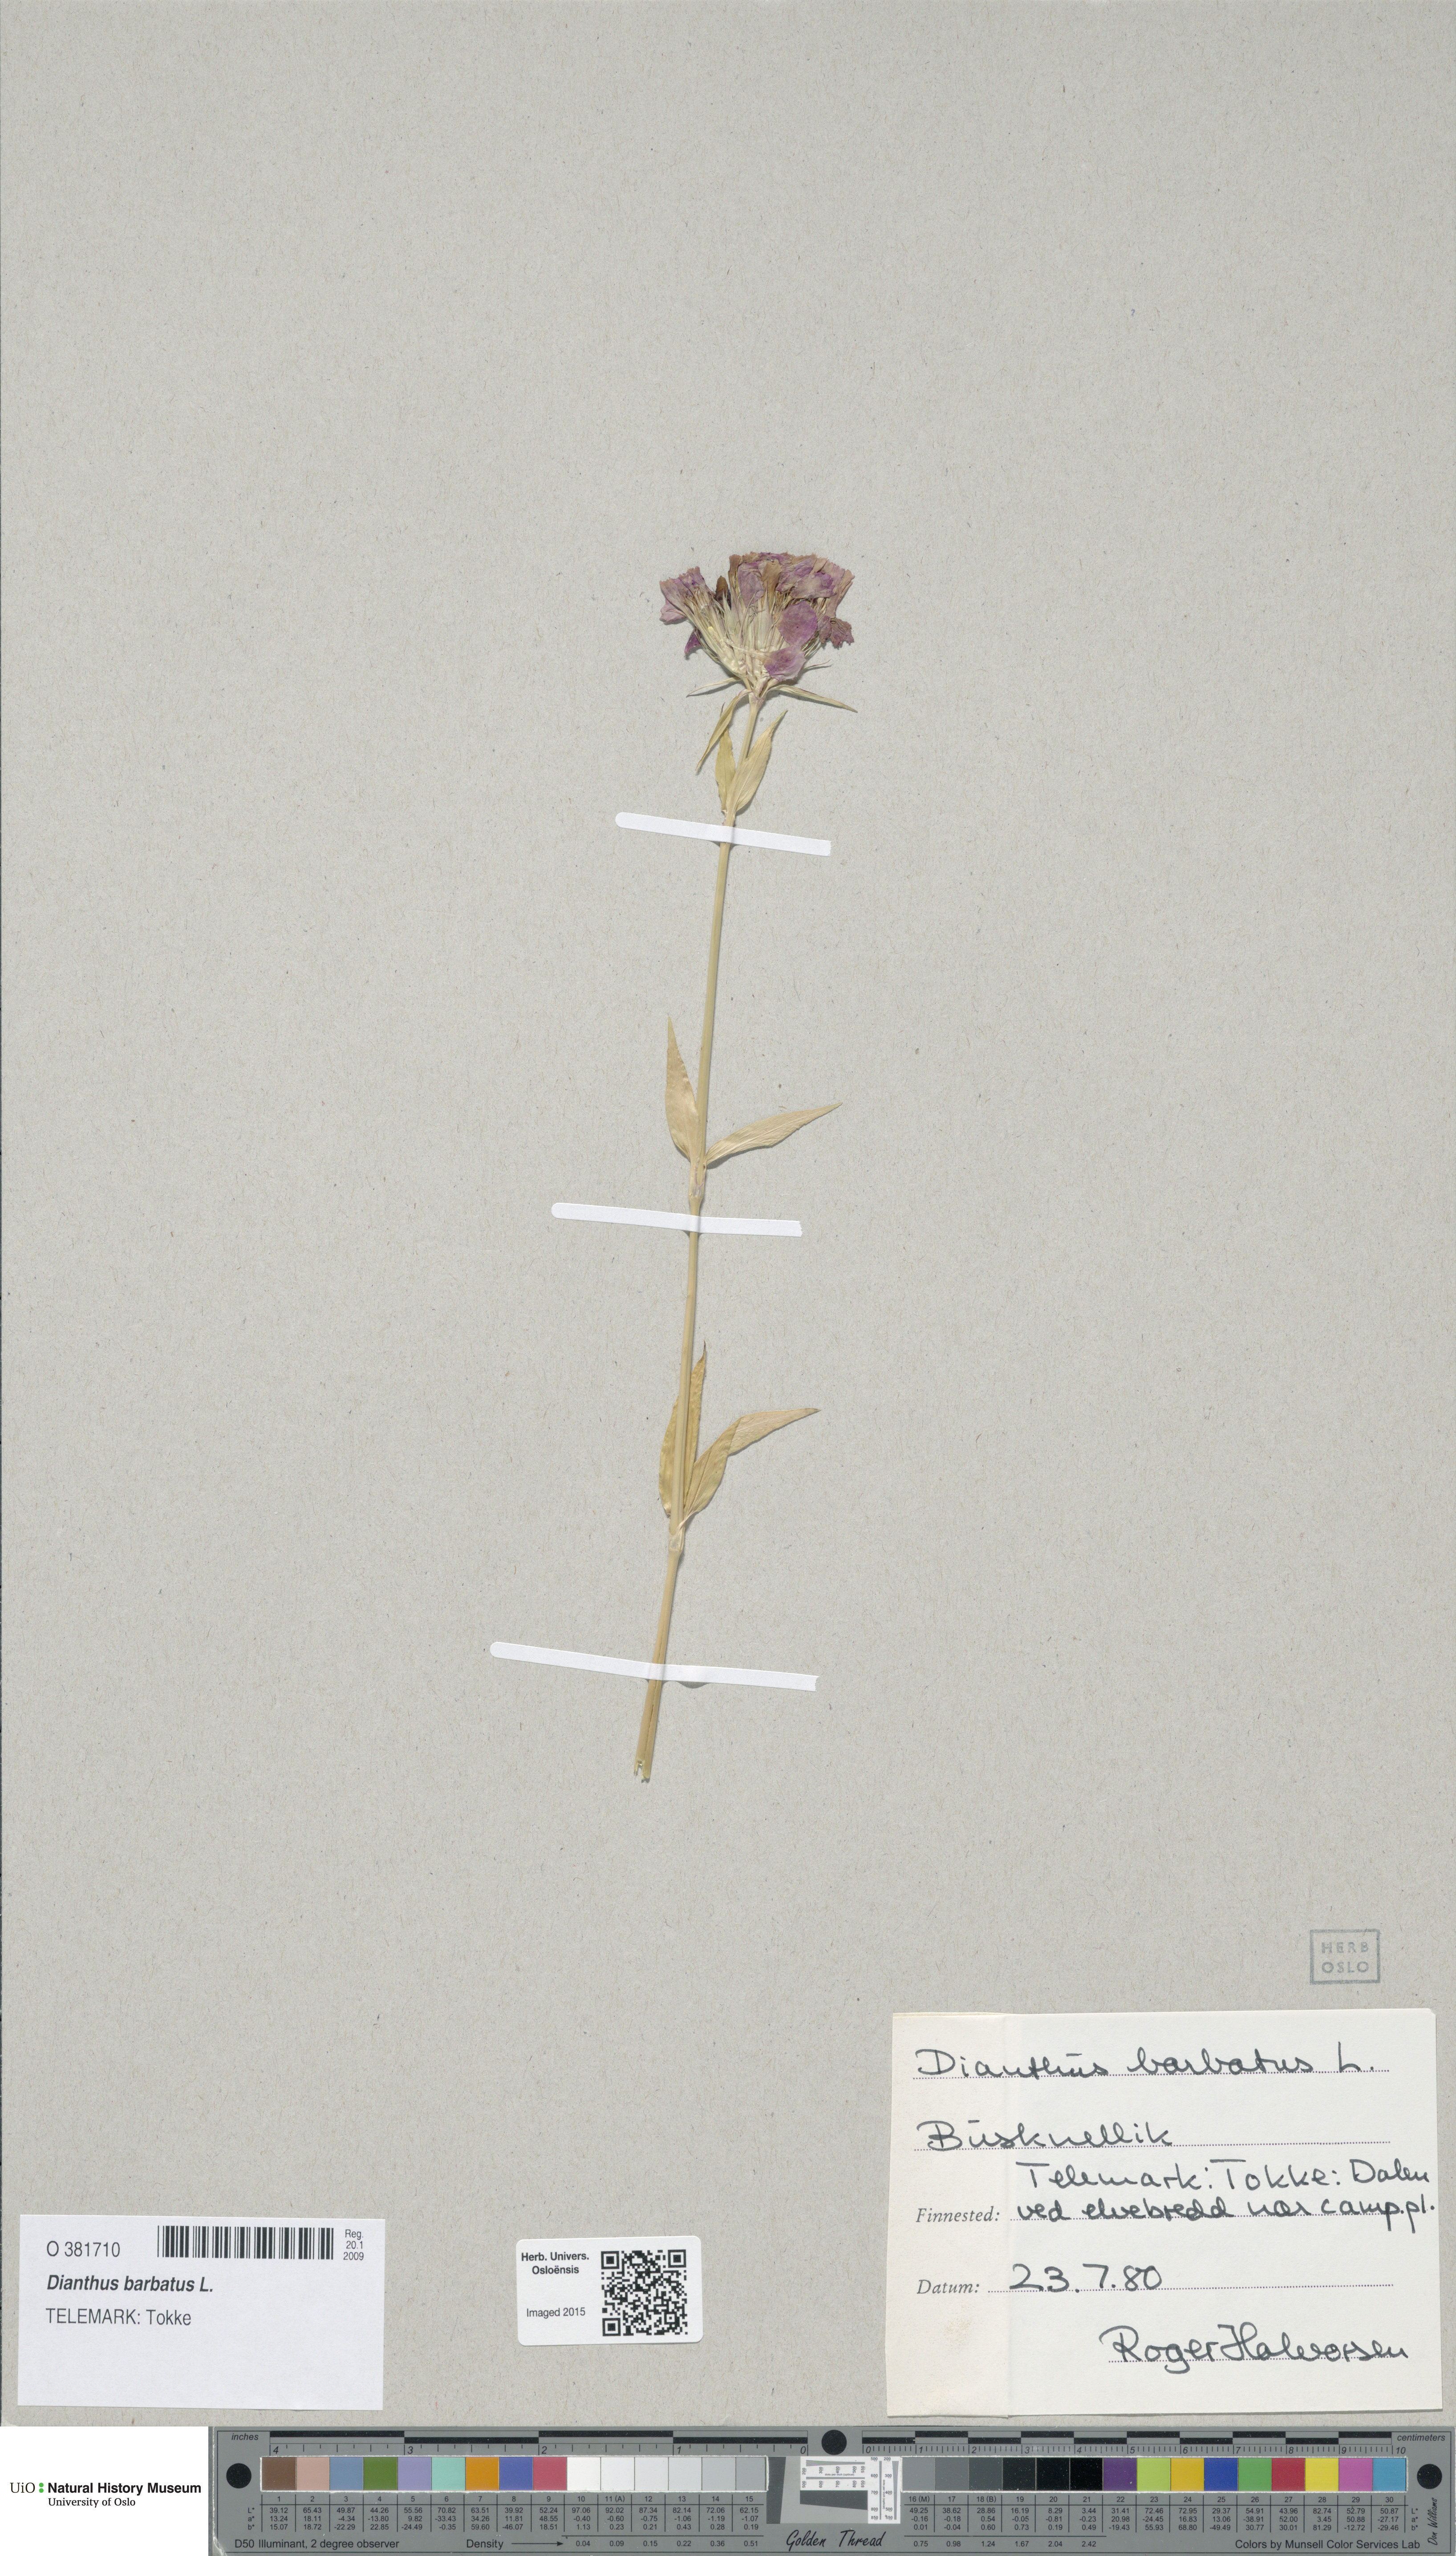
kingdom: Plantae
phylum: Tracheophyta
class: Magnoliopsida
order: Caryophyllales
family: Caryophyllaceae
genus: Dianthus
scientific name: Dianthus barbatus
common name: Sweet-william
